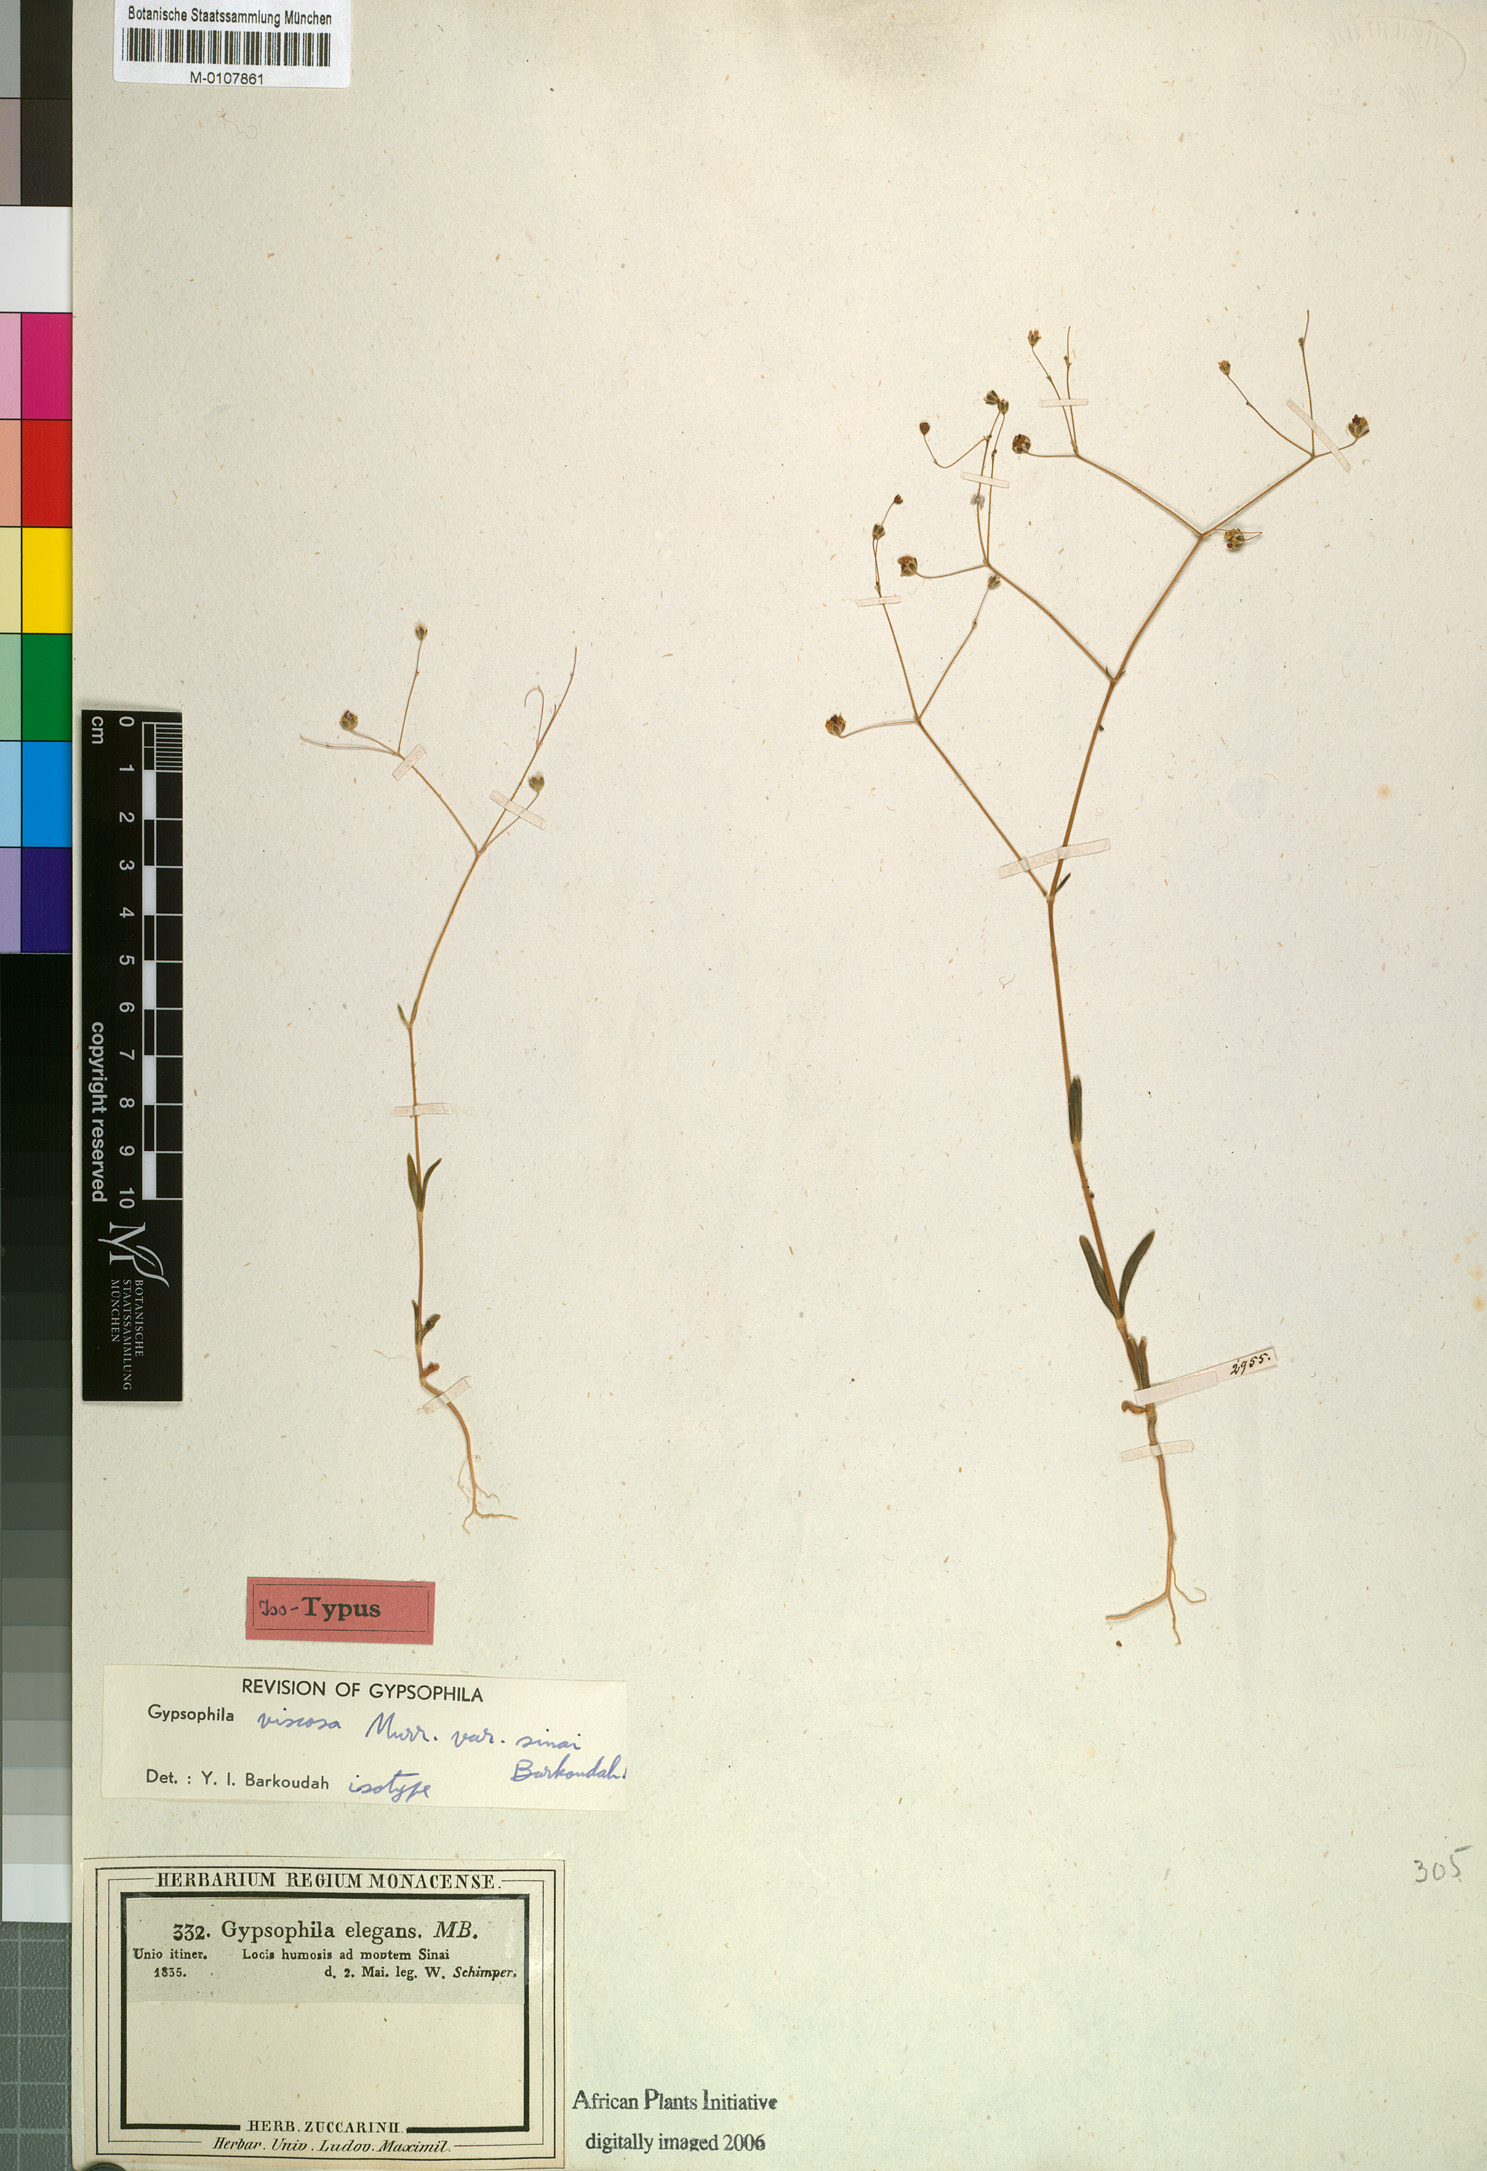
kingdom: Plantae
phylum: Tracheophyta
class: Magnoliopsida
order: Caryophyllales
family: Caryophyllaceae
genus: Gypsophila
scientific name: Gypsophila viscosa
